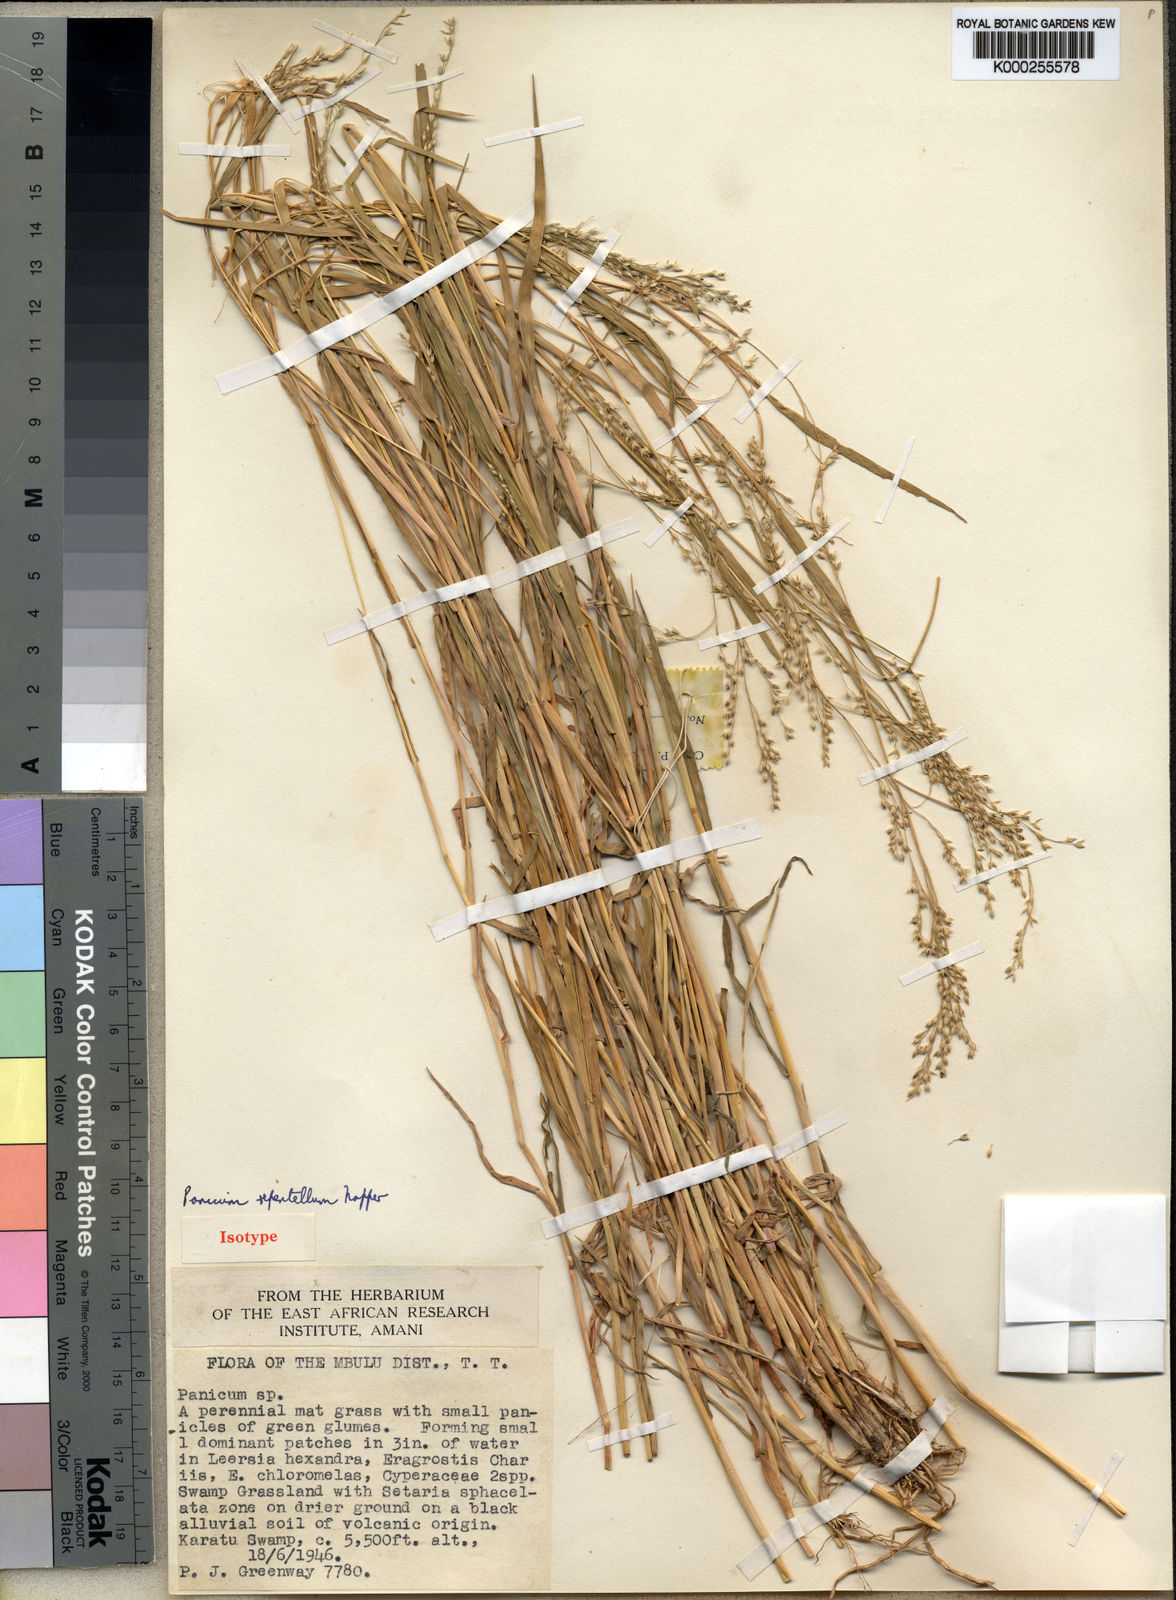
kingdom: Plantae
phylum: Tracheophyta
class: Liliopsida
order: Poales
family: Poaceae
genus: Panicum
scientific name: Panicum hygrocharis
